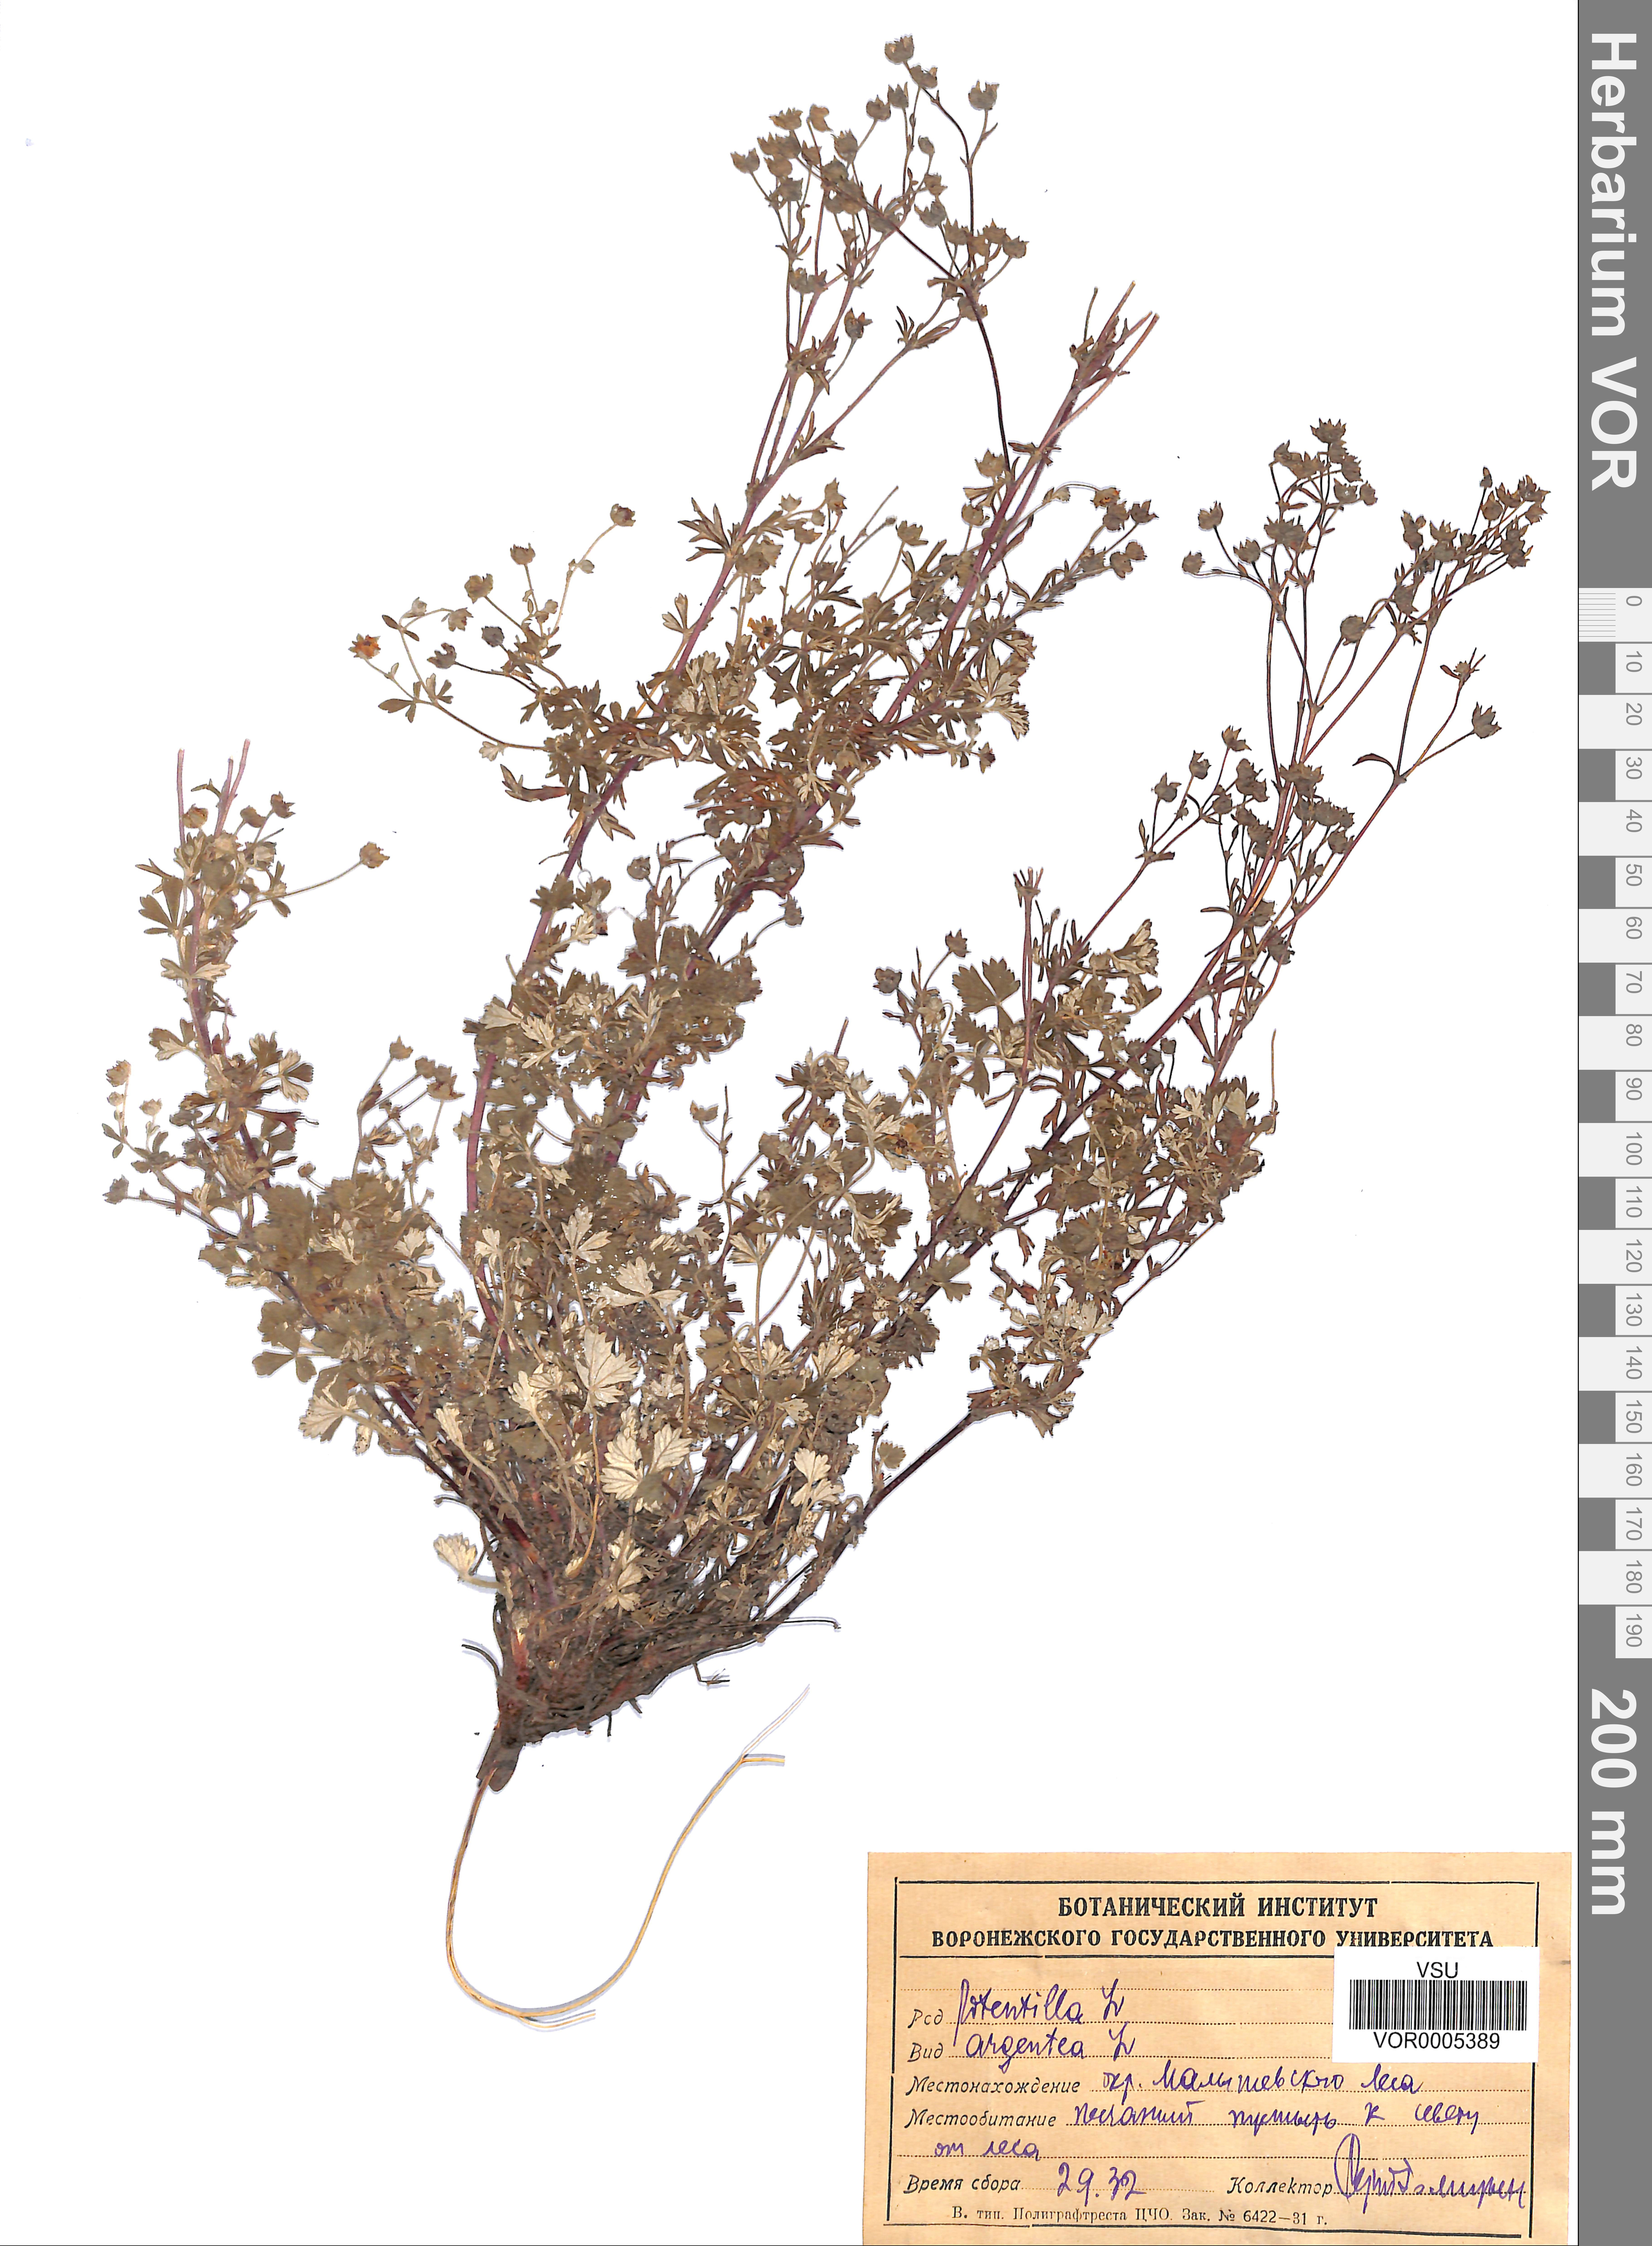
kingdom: Plantae
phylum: Tracheophyta
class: Magnoliopsida
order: Rosales
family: Rosaceae
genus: Potentilla
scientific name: Potentilla argentea
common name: Hoary cinquefoil
